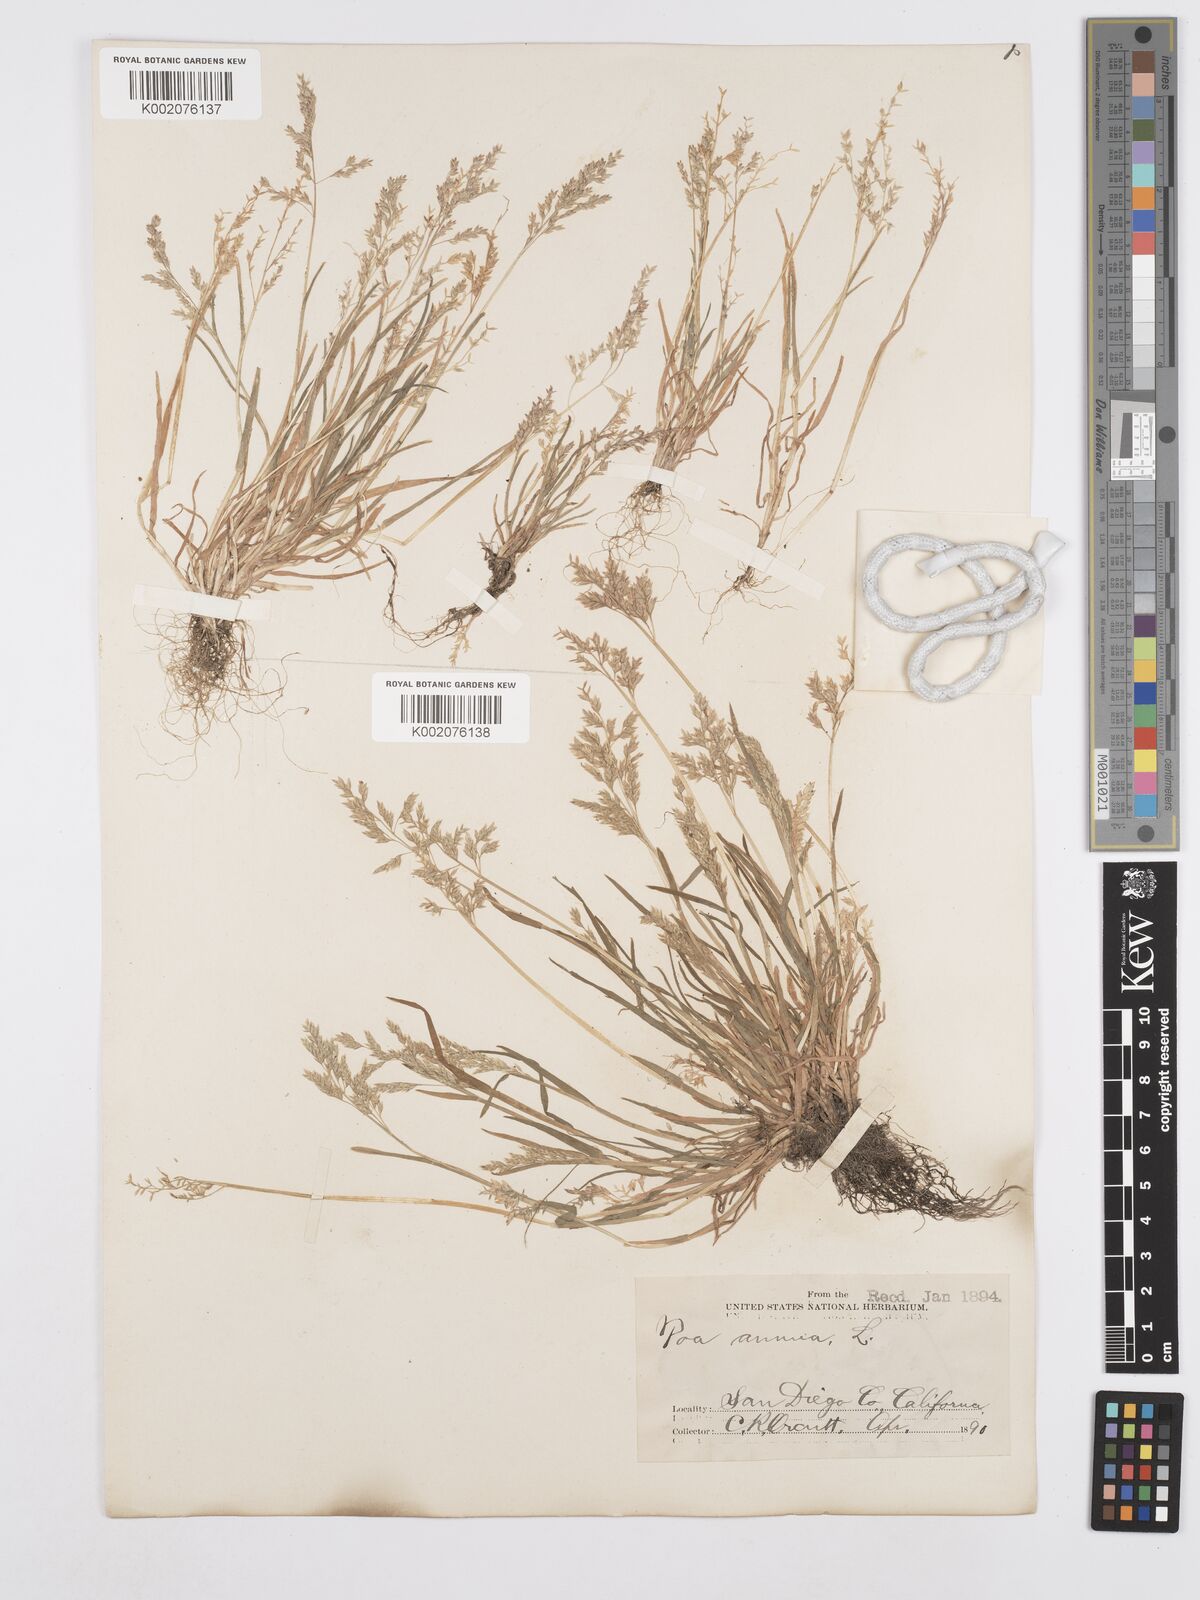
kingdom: Plantae
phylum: Tracheophyta
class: Liliopsida
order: Poales
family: Poaceae
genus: Poa
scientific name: Poa annua
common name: Annual bluegrass
